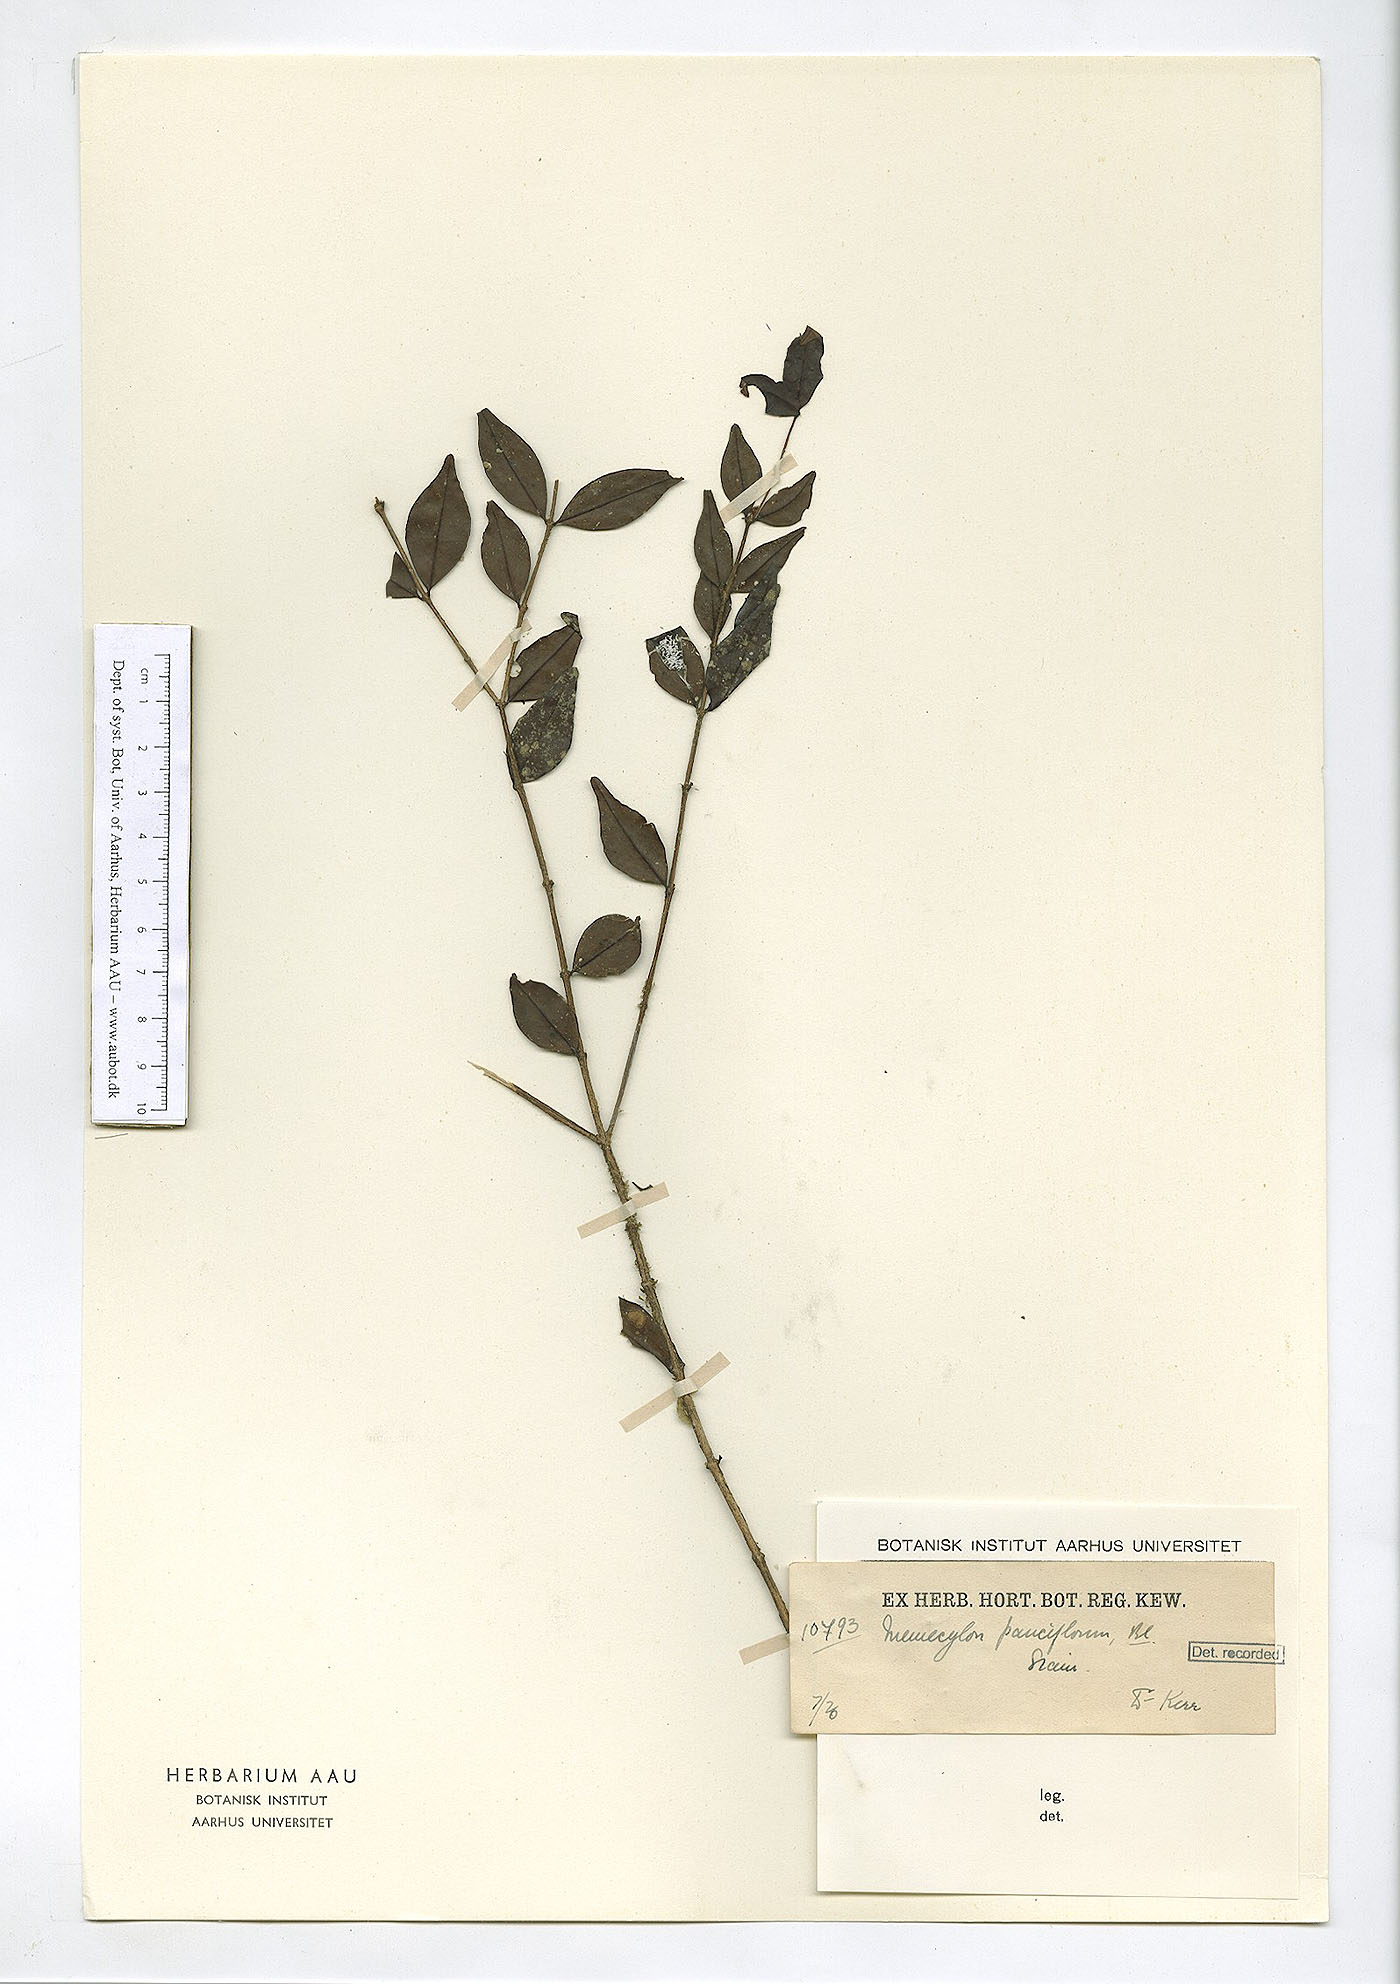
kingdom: Plantae
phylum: Tracheophyta
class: Magnoliopsida
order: Myrtales
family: Melastomataceae
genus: Memecylon
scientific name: Memecylon pauciflorum
